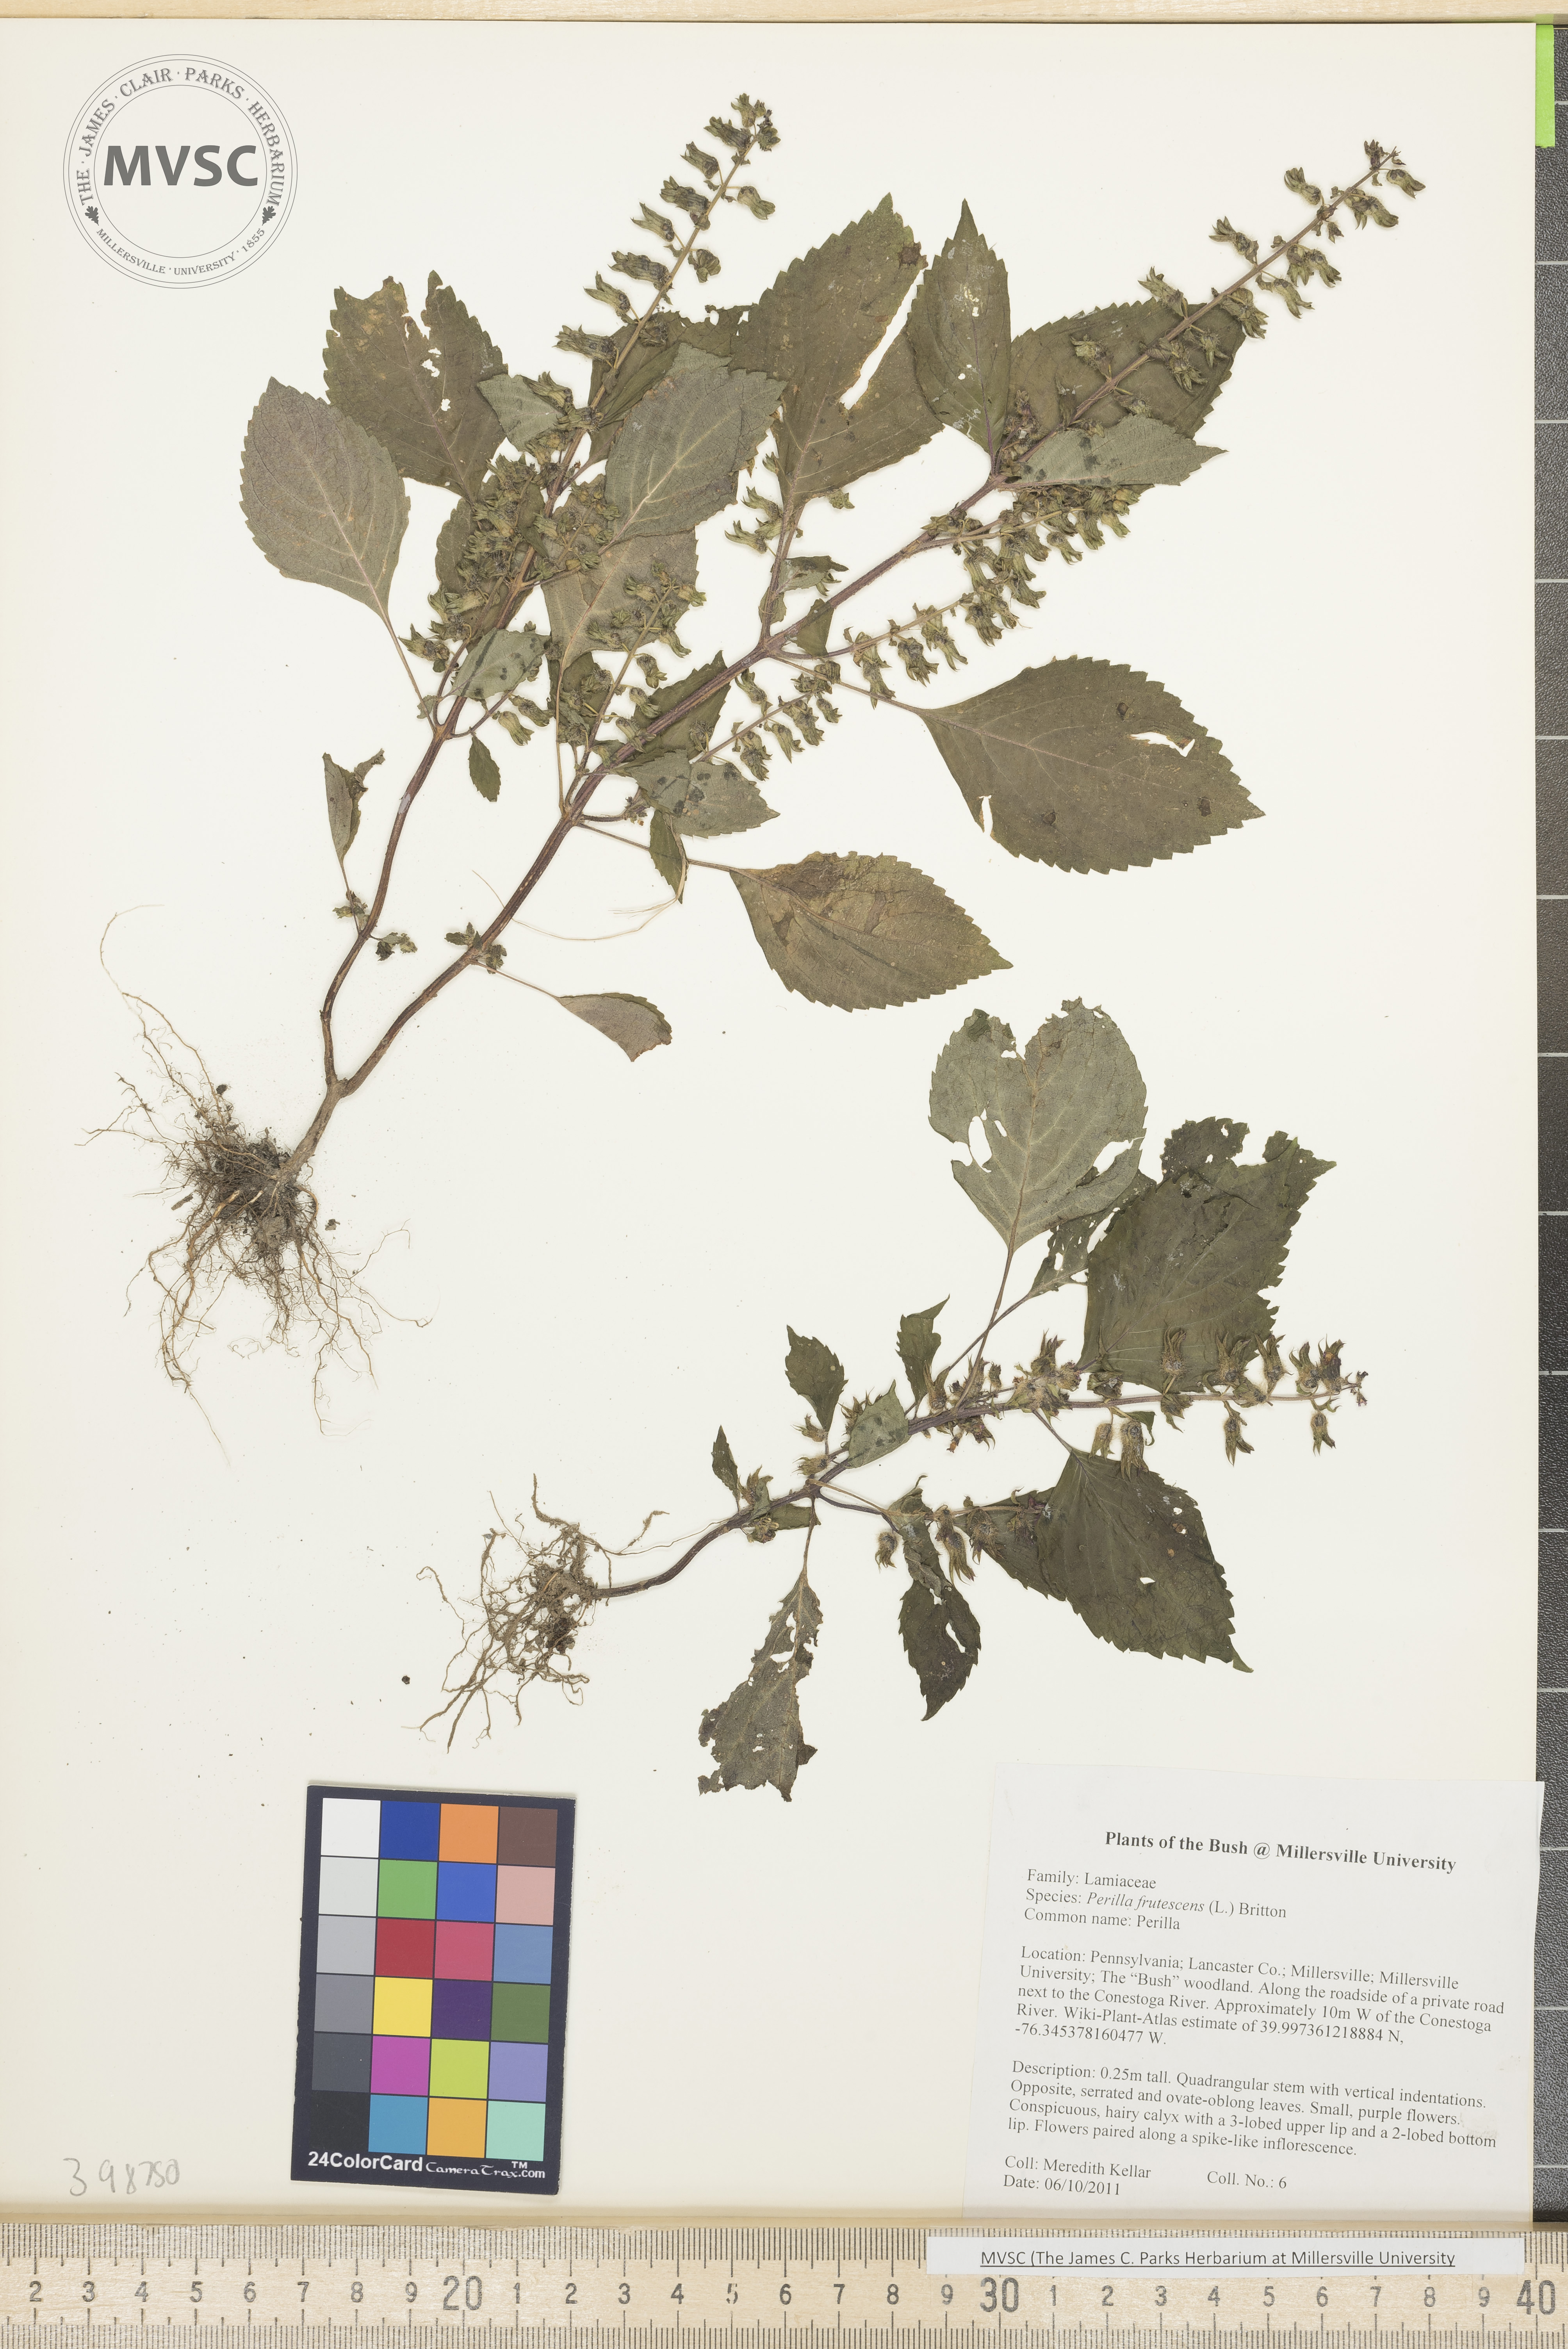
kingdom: Plantae
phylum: Tracheophyta
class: Magnoliopsida
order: Lamiales
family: Lamiaceae
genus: Perilla
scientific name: Perilla frutescens
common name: Perilla
